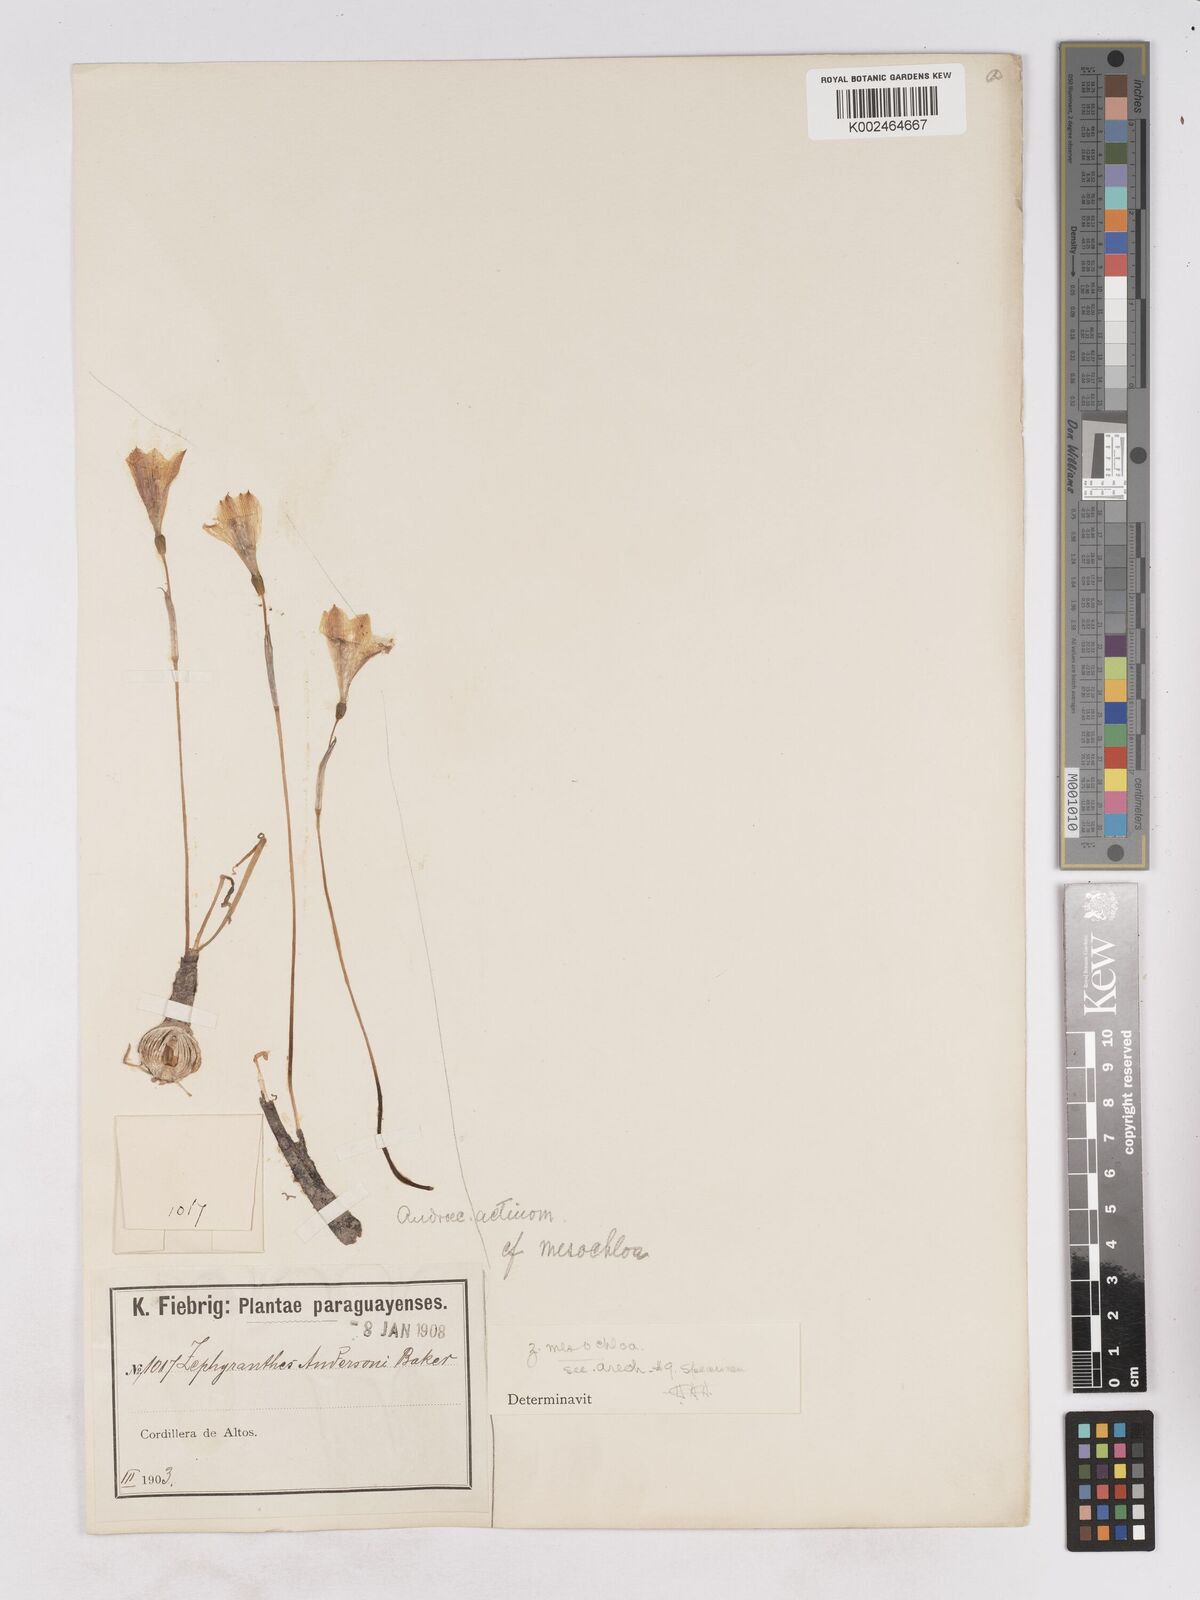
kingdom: Plantae
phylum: Tracheophyta
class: Liliopsida
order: Asparagales
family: Amaryllidaceae
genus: Zephyranthes
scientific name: Zephyranthes mesochloa
